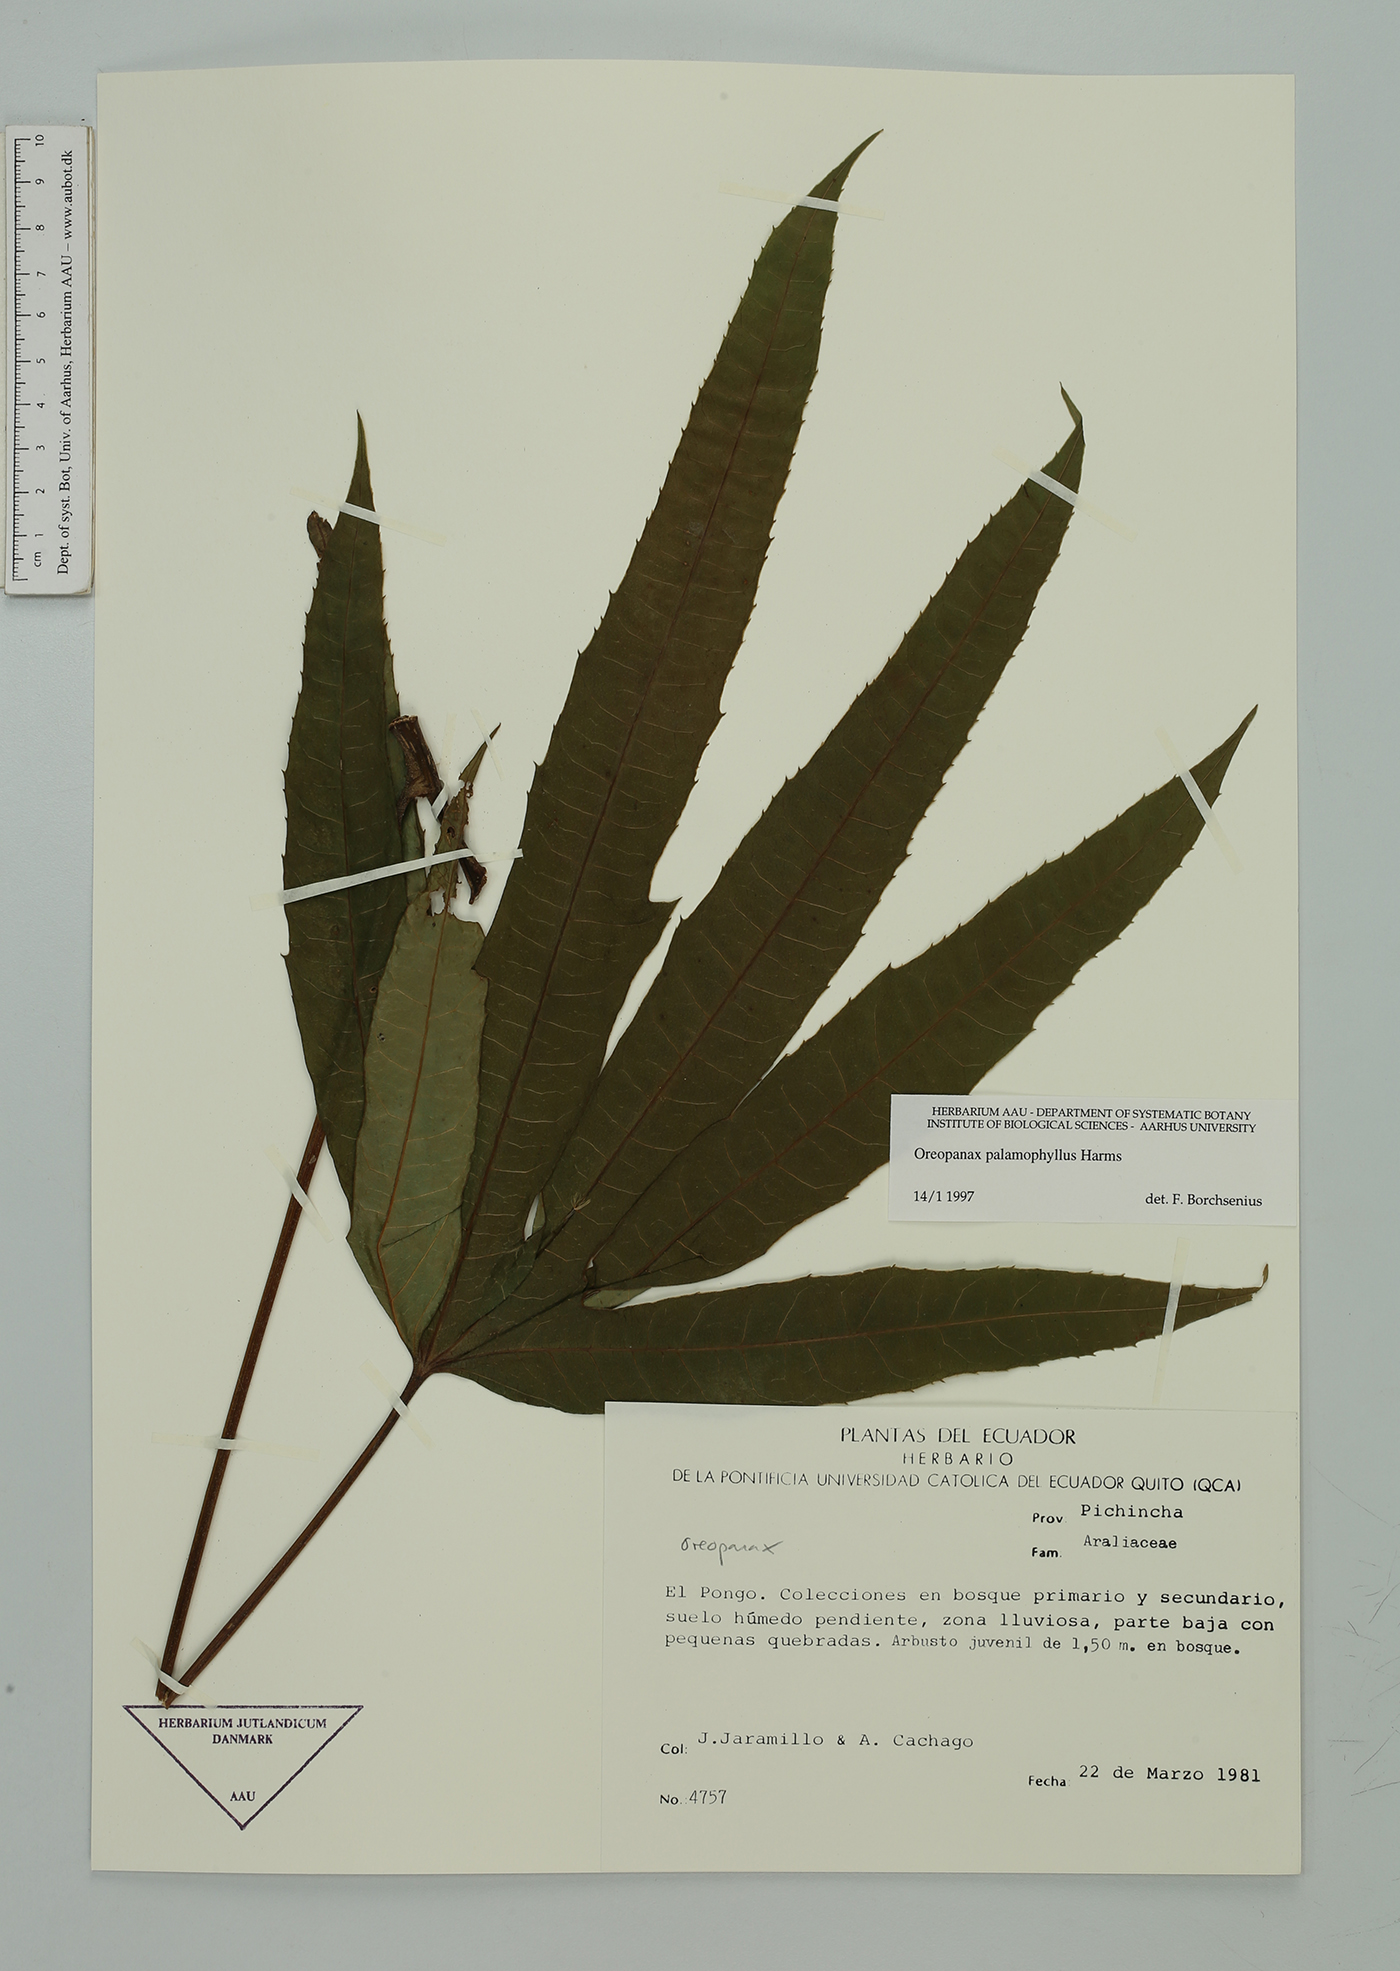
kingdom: Plantae
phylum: Tracheophyta
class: Magnoliopsida
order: Apiales
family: Araliaceae
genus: Oreopanax
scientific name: Oreopanax palamophyllus
